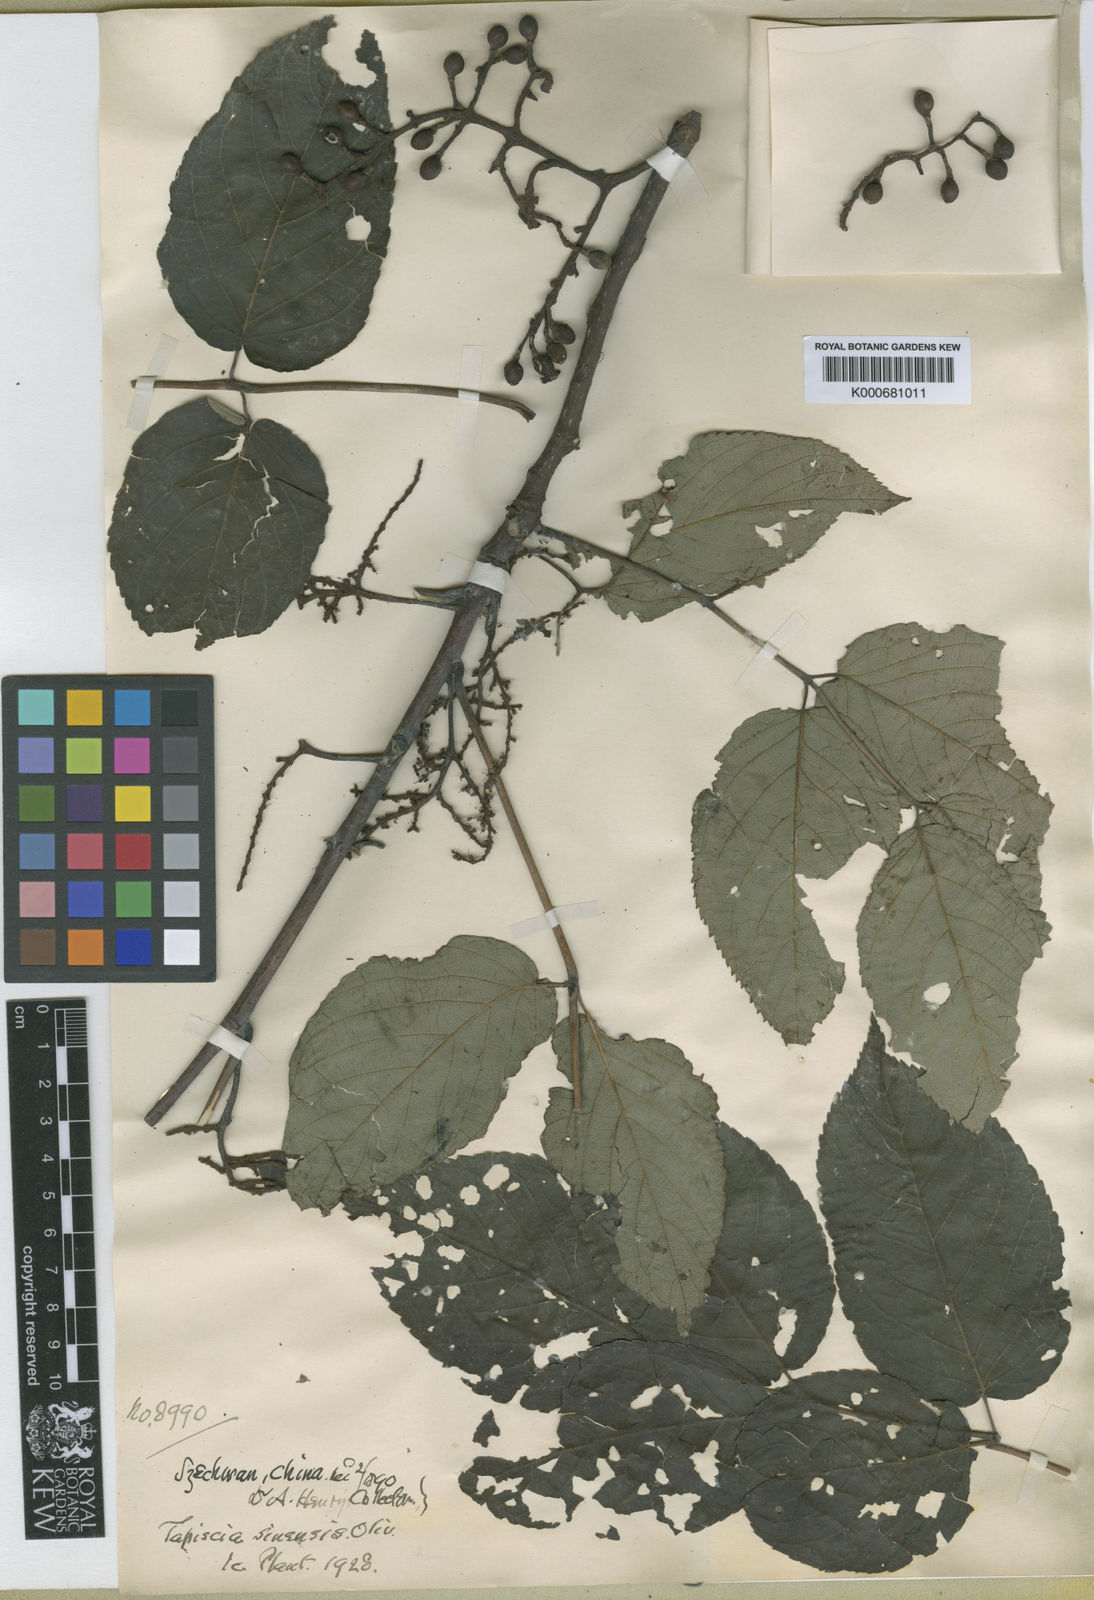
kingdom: Plantae
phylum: Tracheophyta
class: Magnoliopsida
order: Huerteales
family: Tapisciaceae
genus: Tapiscia
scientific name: Tapiscia sinensis
